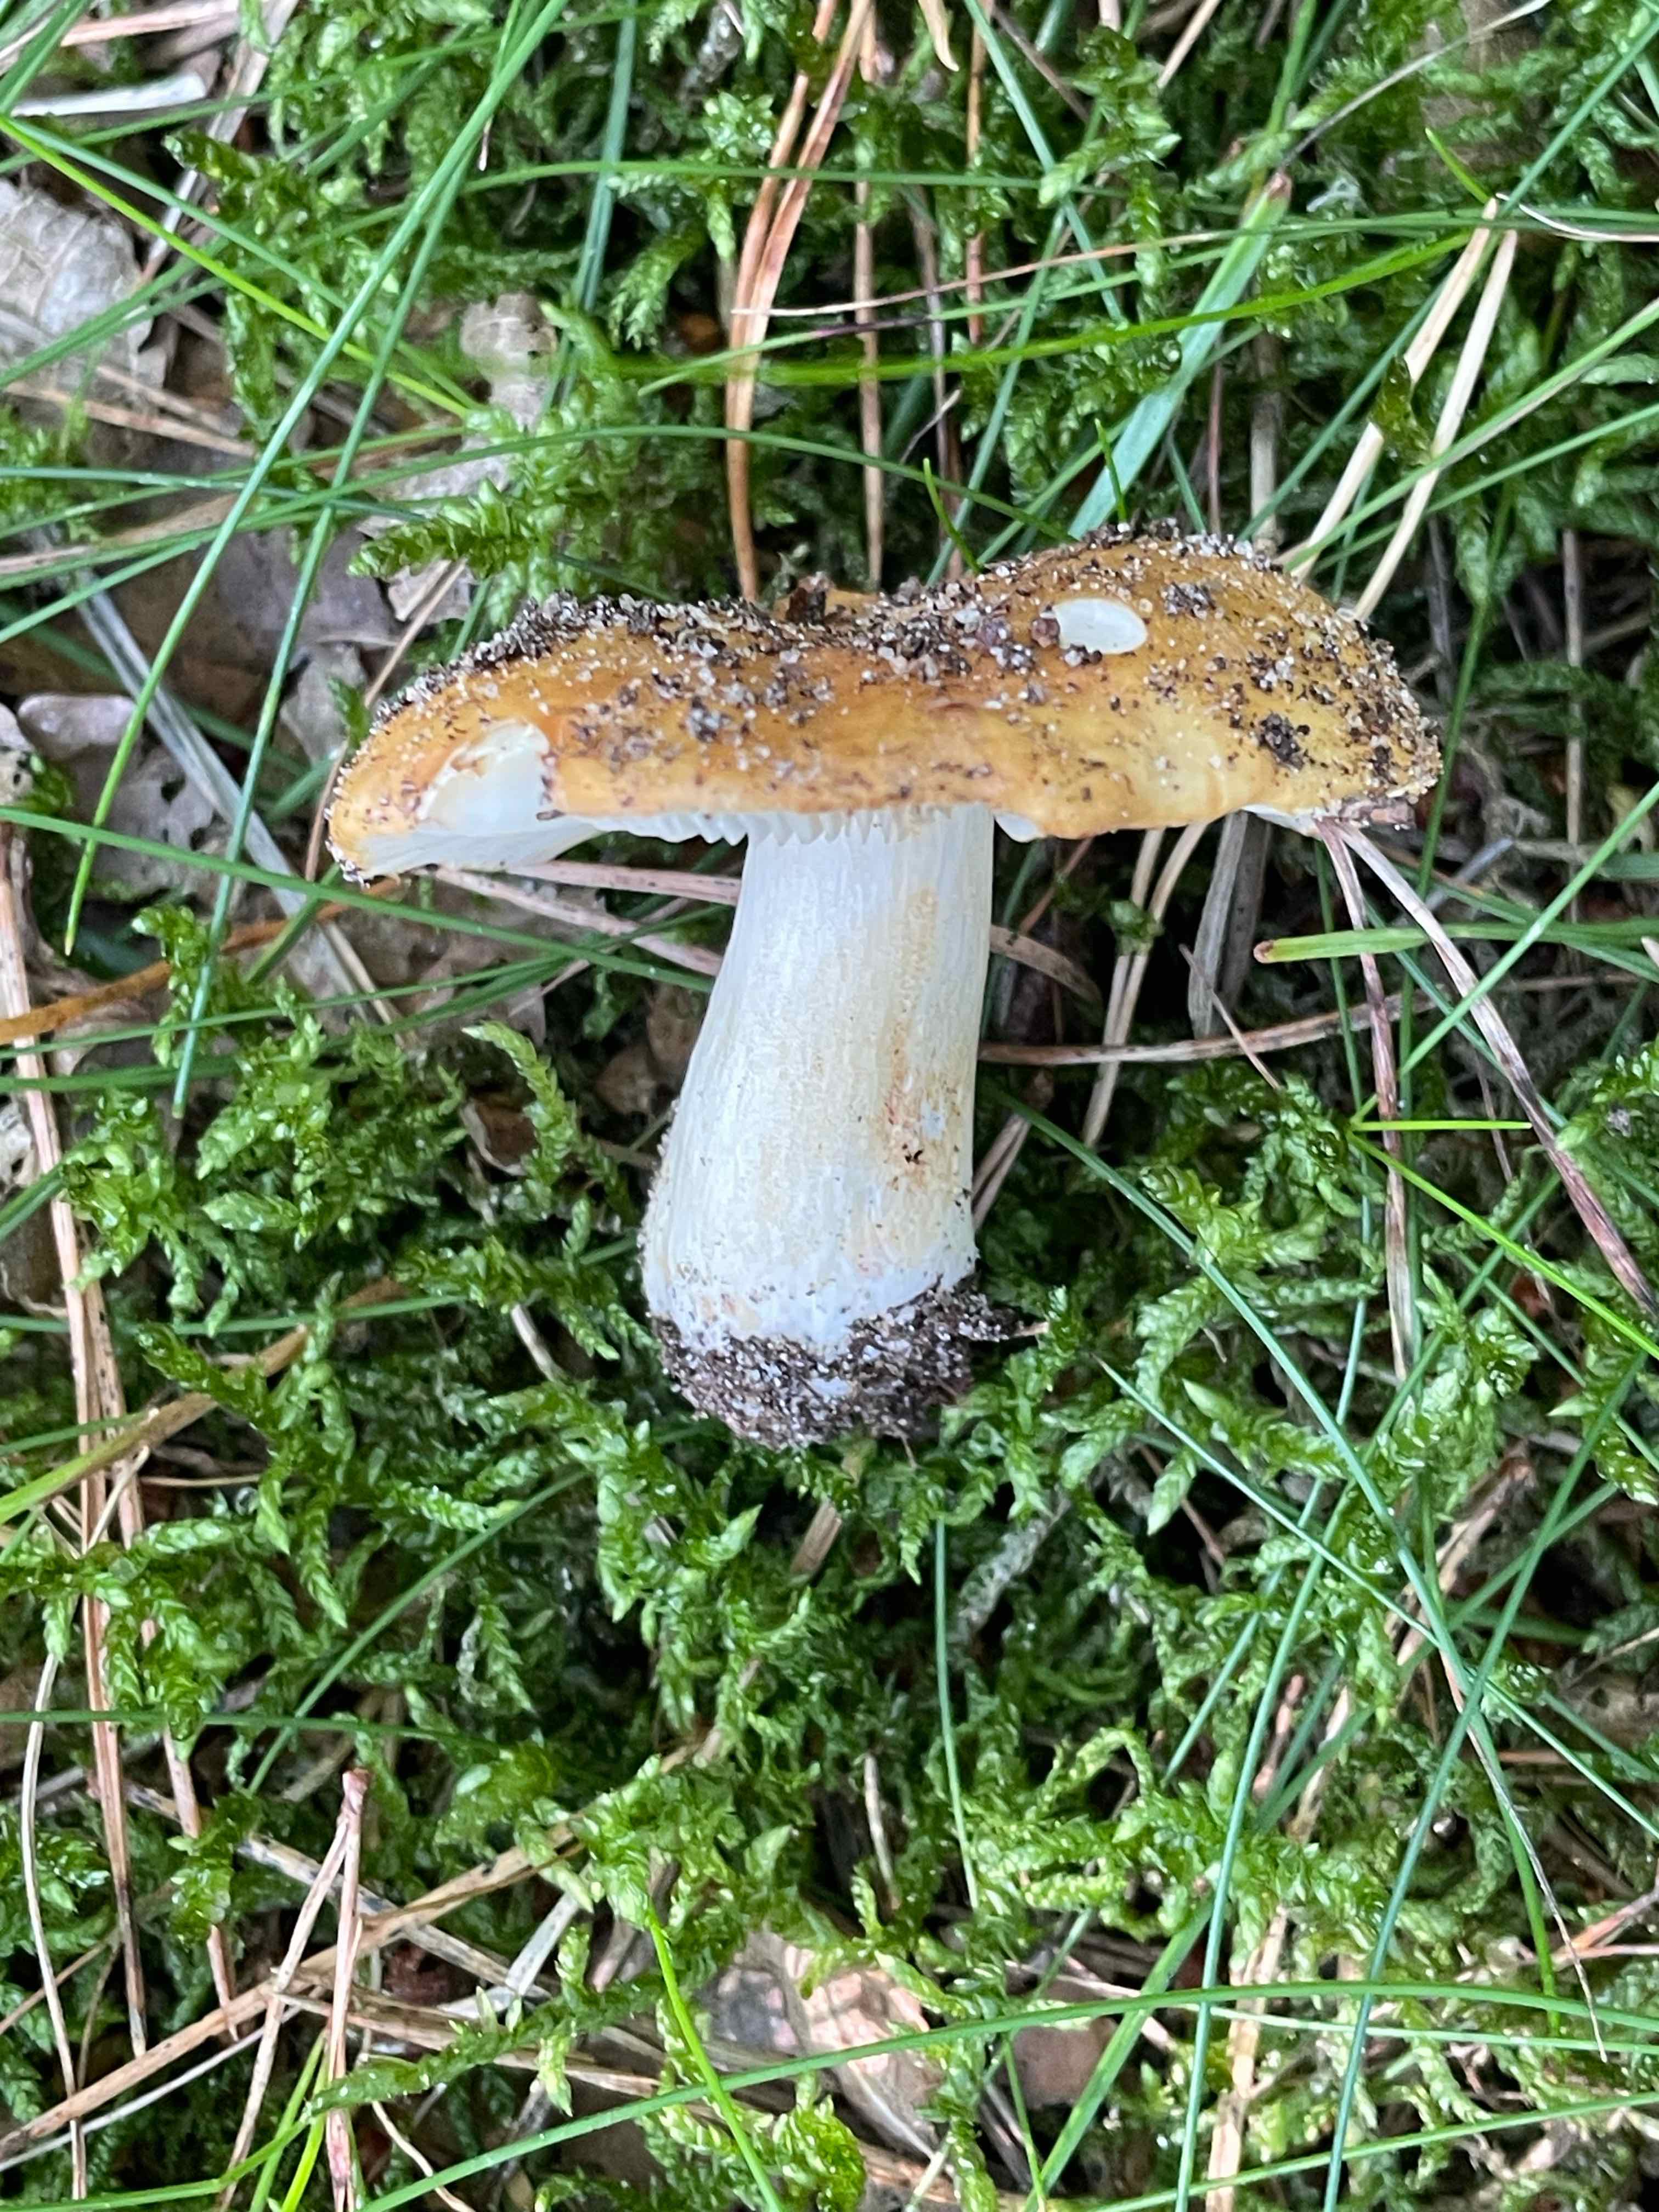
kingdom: Fungi
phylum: Basidiomycota
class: Agaricomycetes
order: Russulales
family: Russulaceae
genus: Russula
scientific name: Russula ochroleuca
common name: okkergul skørhat
